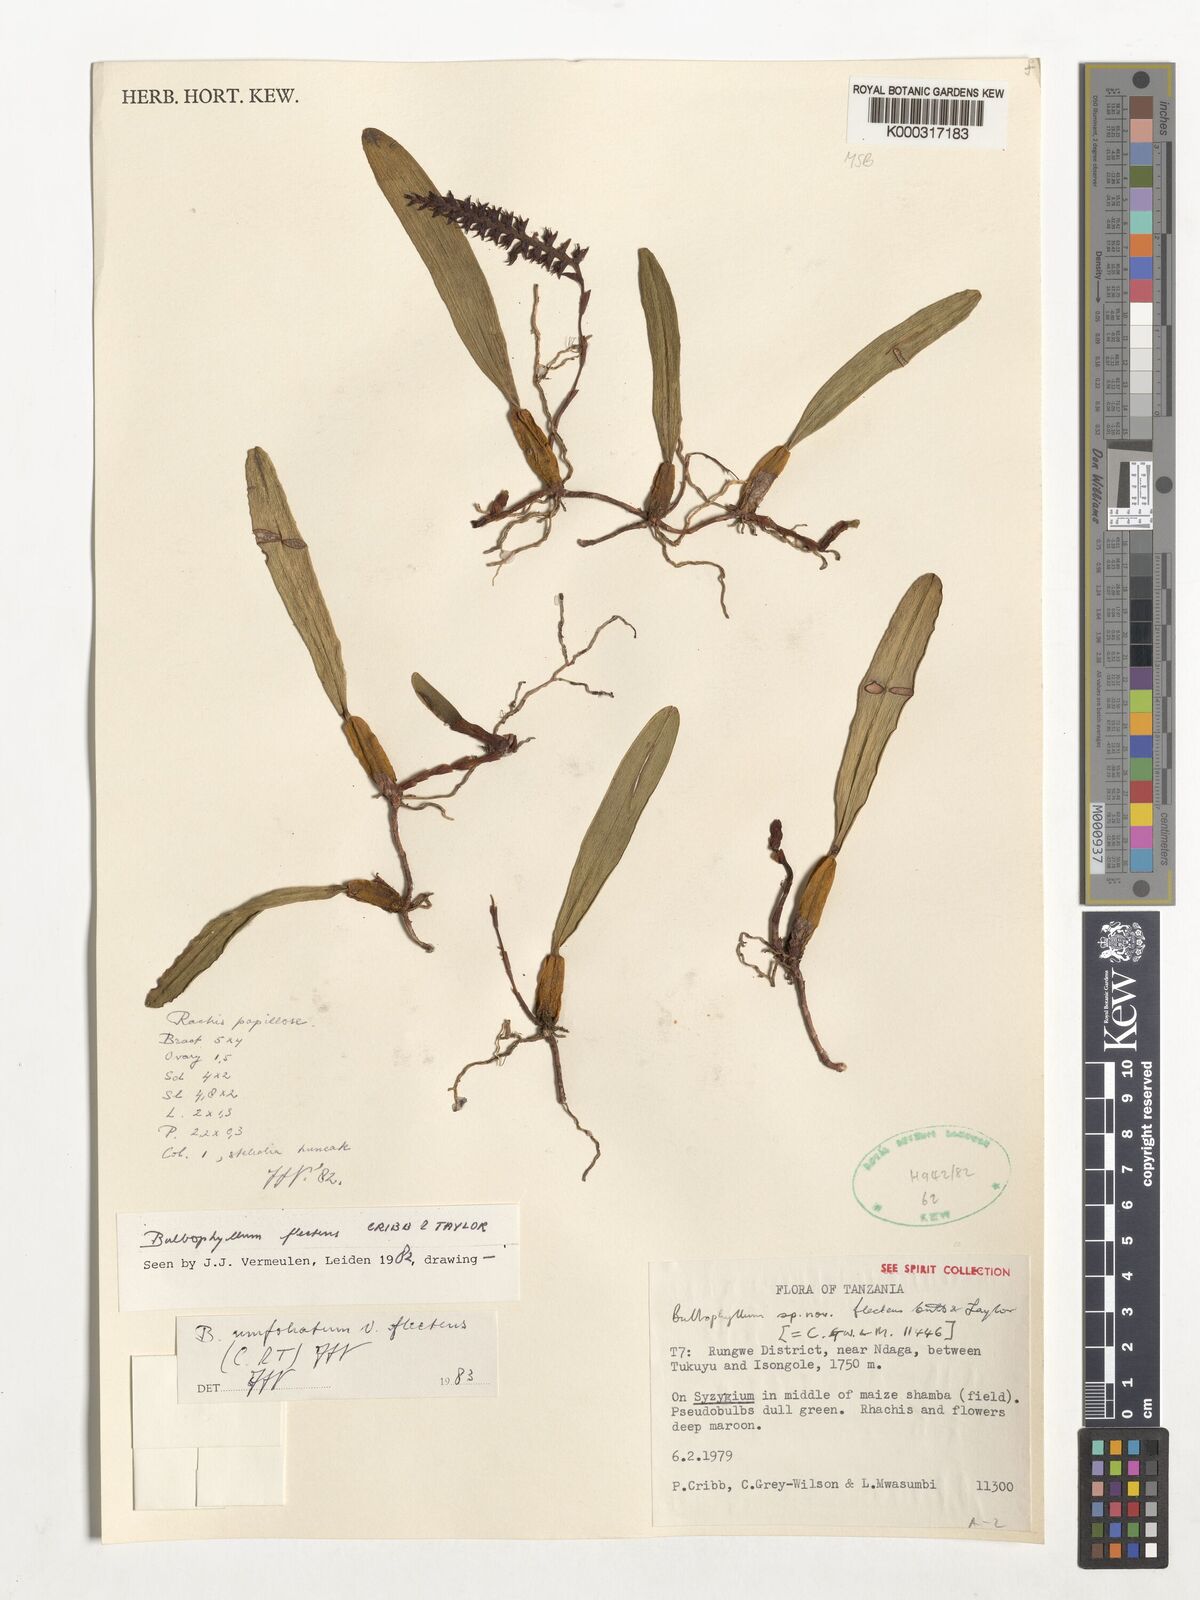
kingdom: Plantae
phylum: Tracheophyta
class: Liliopsida
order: Asparagales
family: Orchidaceae
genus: Bulbophyllum
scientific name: Bulbophyllum unifoliatum
